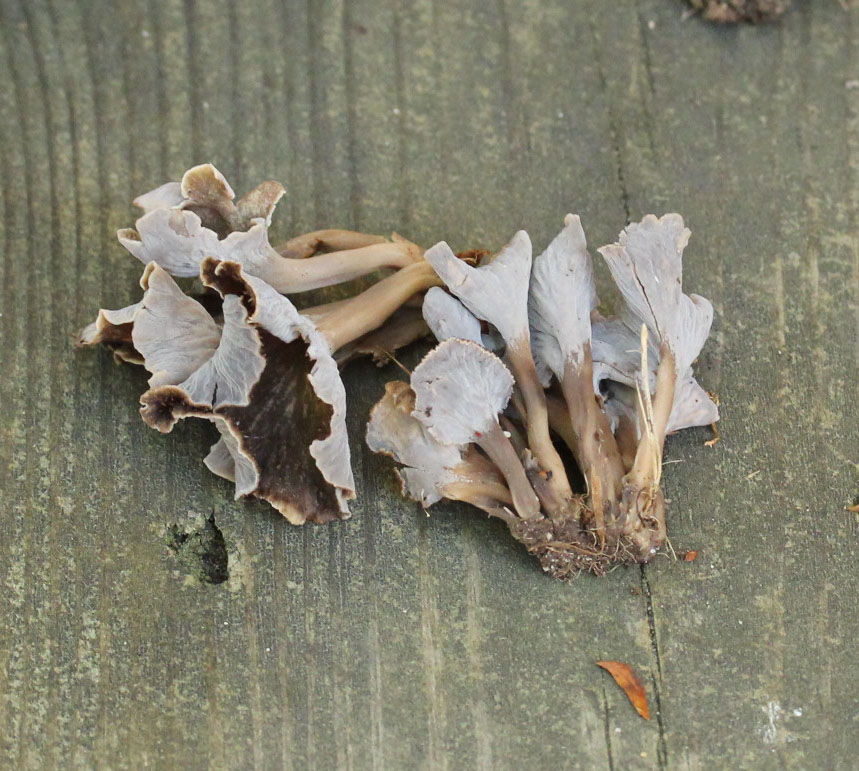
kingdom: Fungi
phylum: Basidiomycota
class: Agaricomycetes
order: Cantharellales
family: Hydnaceae
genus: Craterellus
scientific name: Craterellus undulatus
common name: liden kantarel
